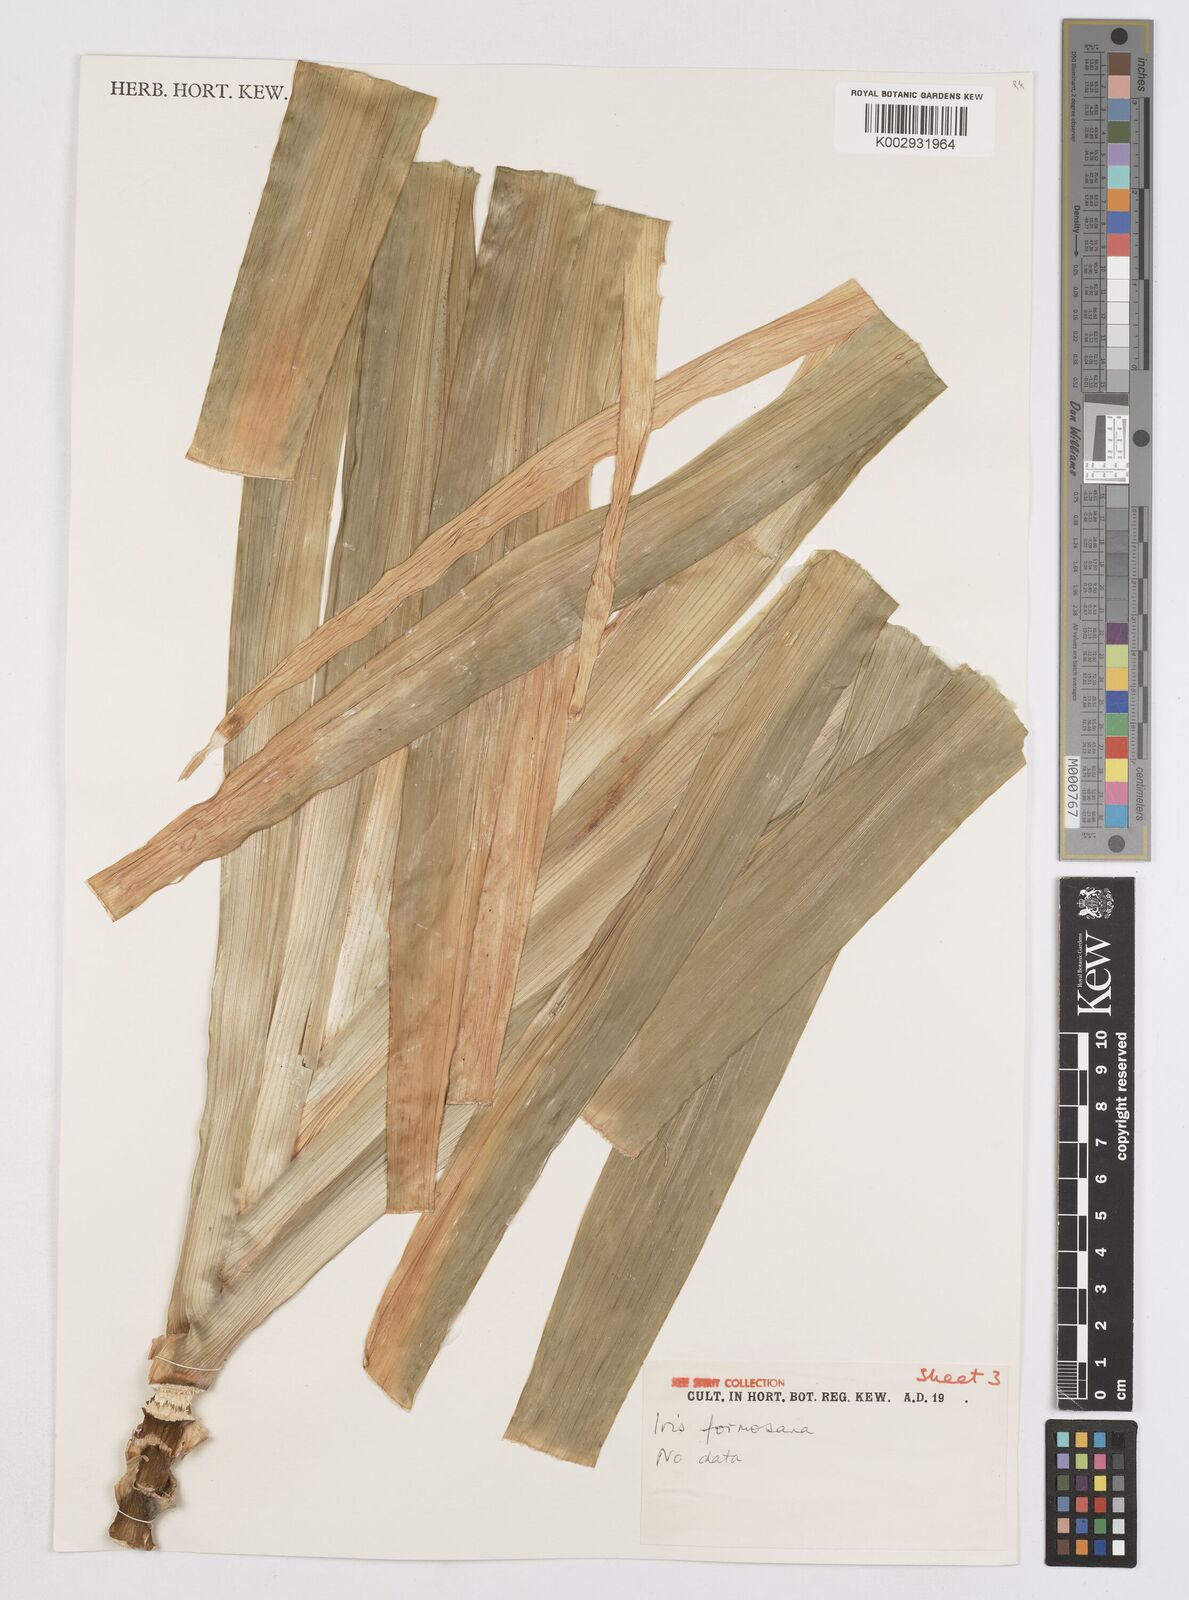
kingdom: Plantae
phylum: Tracheophyta
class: Liliopsida
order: Asparagales
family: Iridaceae
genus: Iris
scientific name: Iris formosana
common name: Taiwan iris
